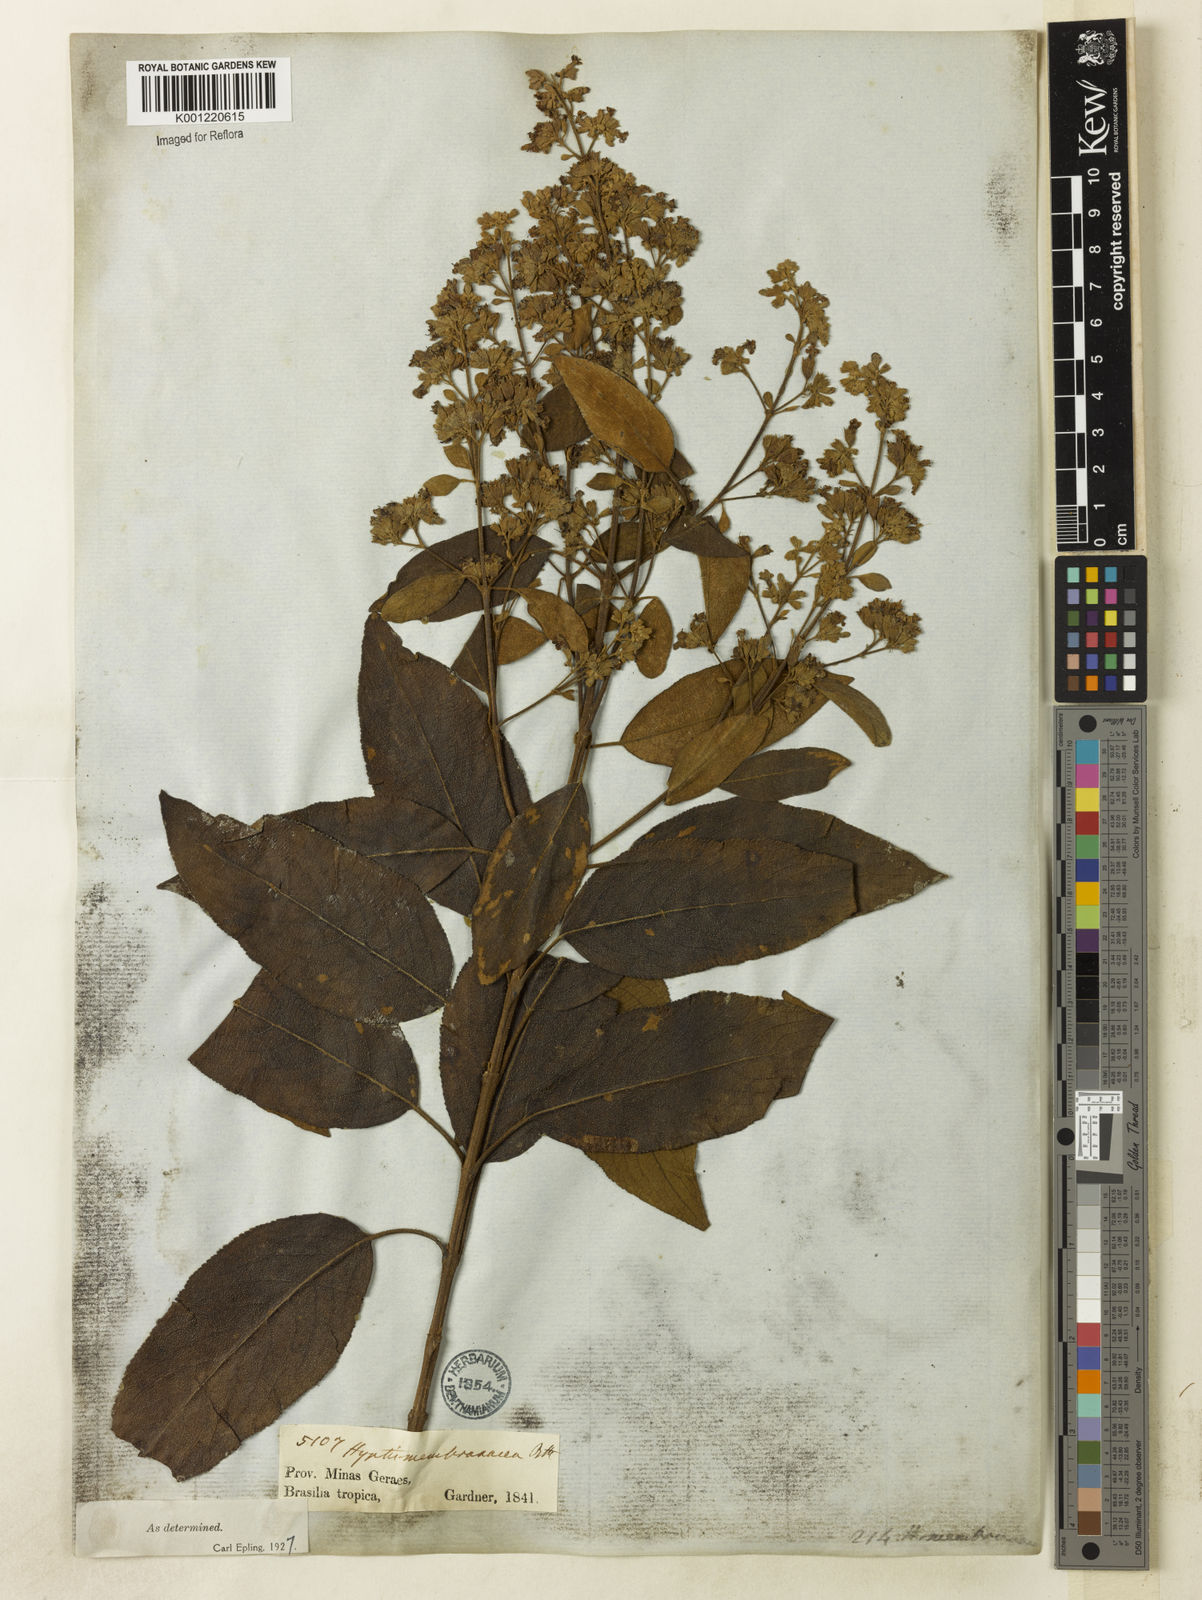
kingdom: Plantae
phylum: Tracheophyta
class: Magnoliopsida
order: Lamiales
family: Lamiaceae
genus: Hyptidendron
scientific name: Hyptidendron asperrimum
